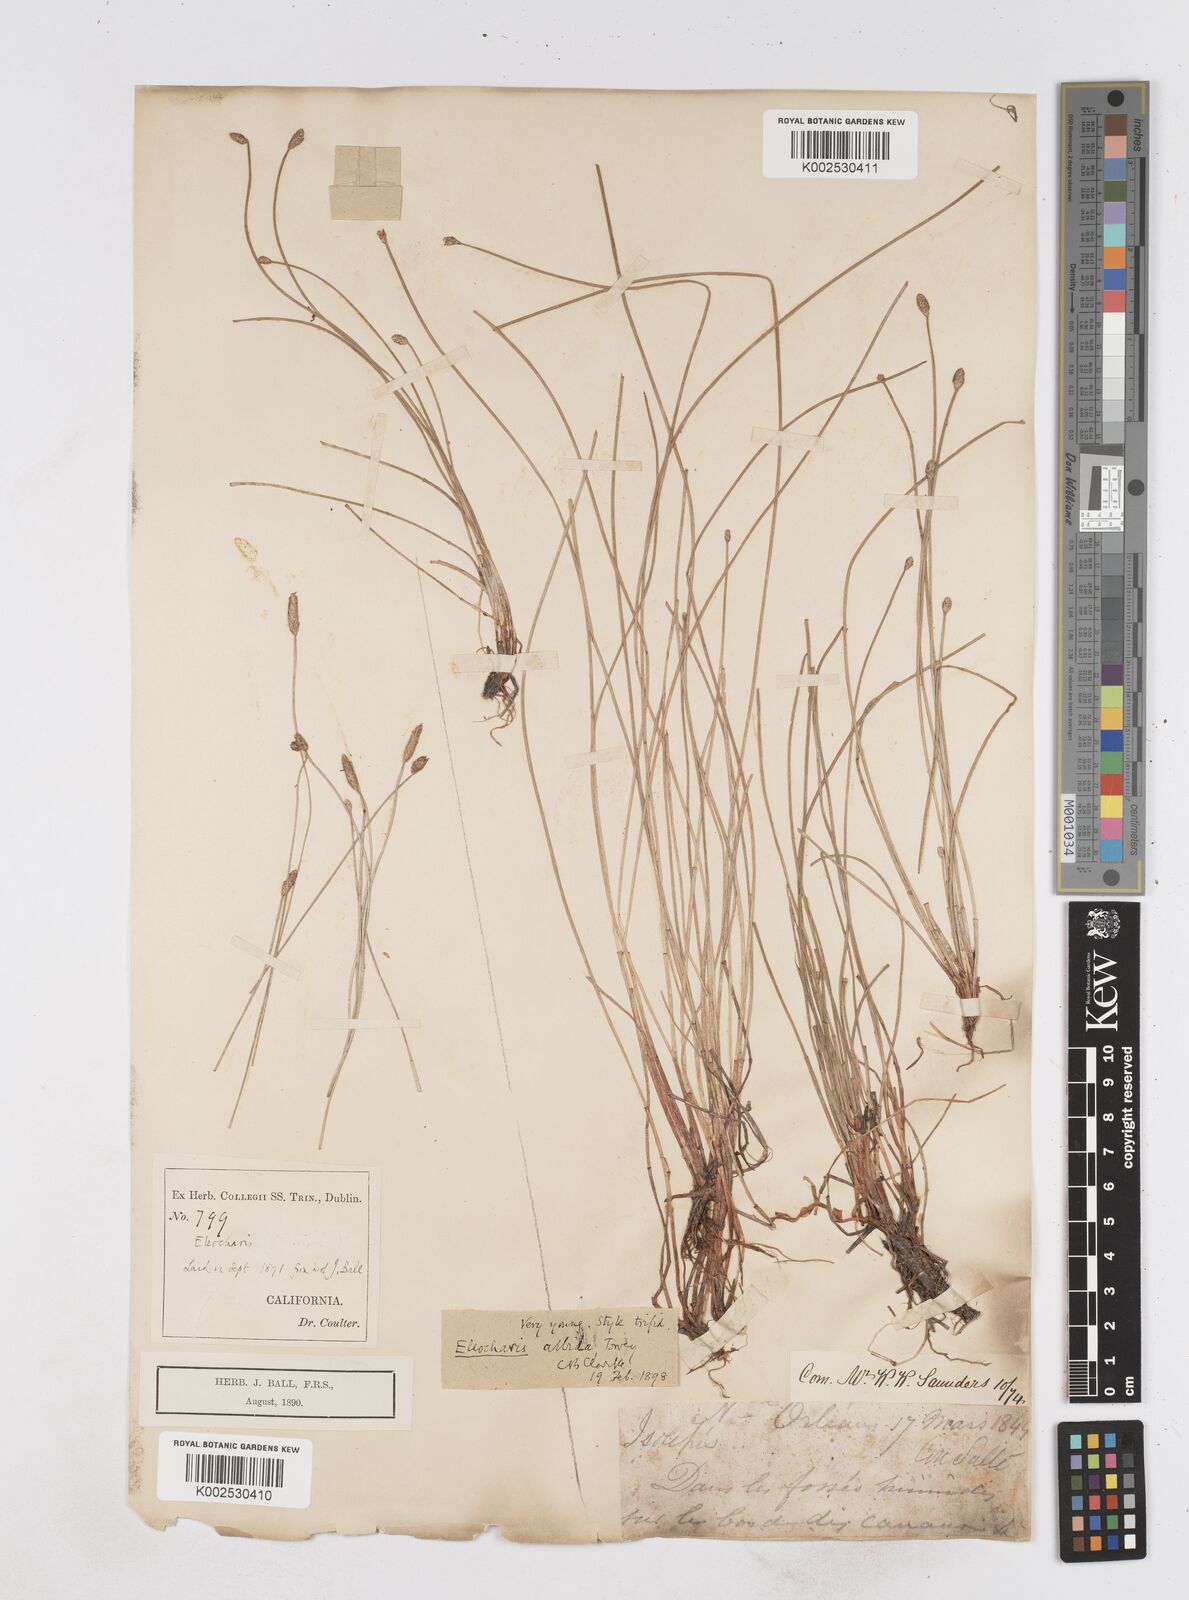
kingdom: Plantae
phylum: Tracheophyta
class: Liliopsida
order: Poales
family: Cyperaceae
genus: Eleocharis
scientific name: Eleocharis albida
